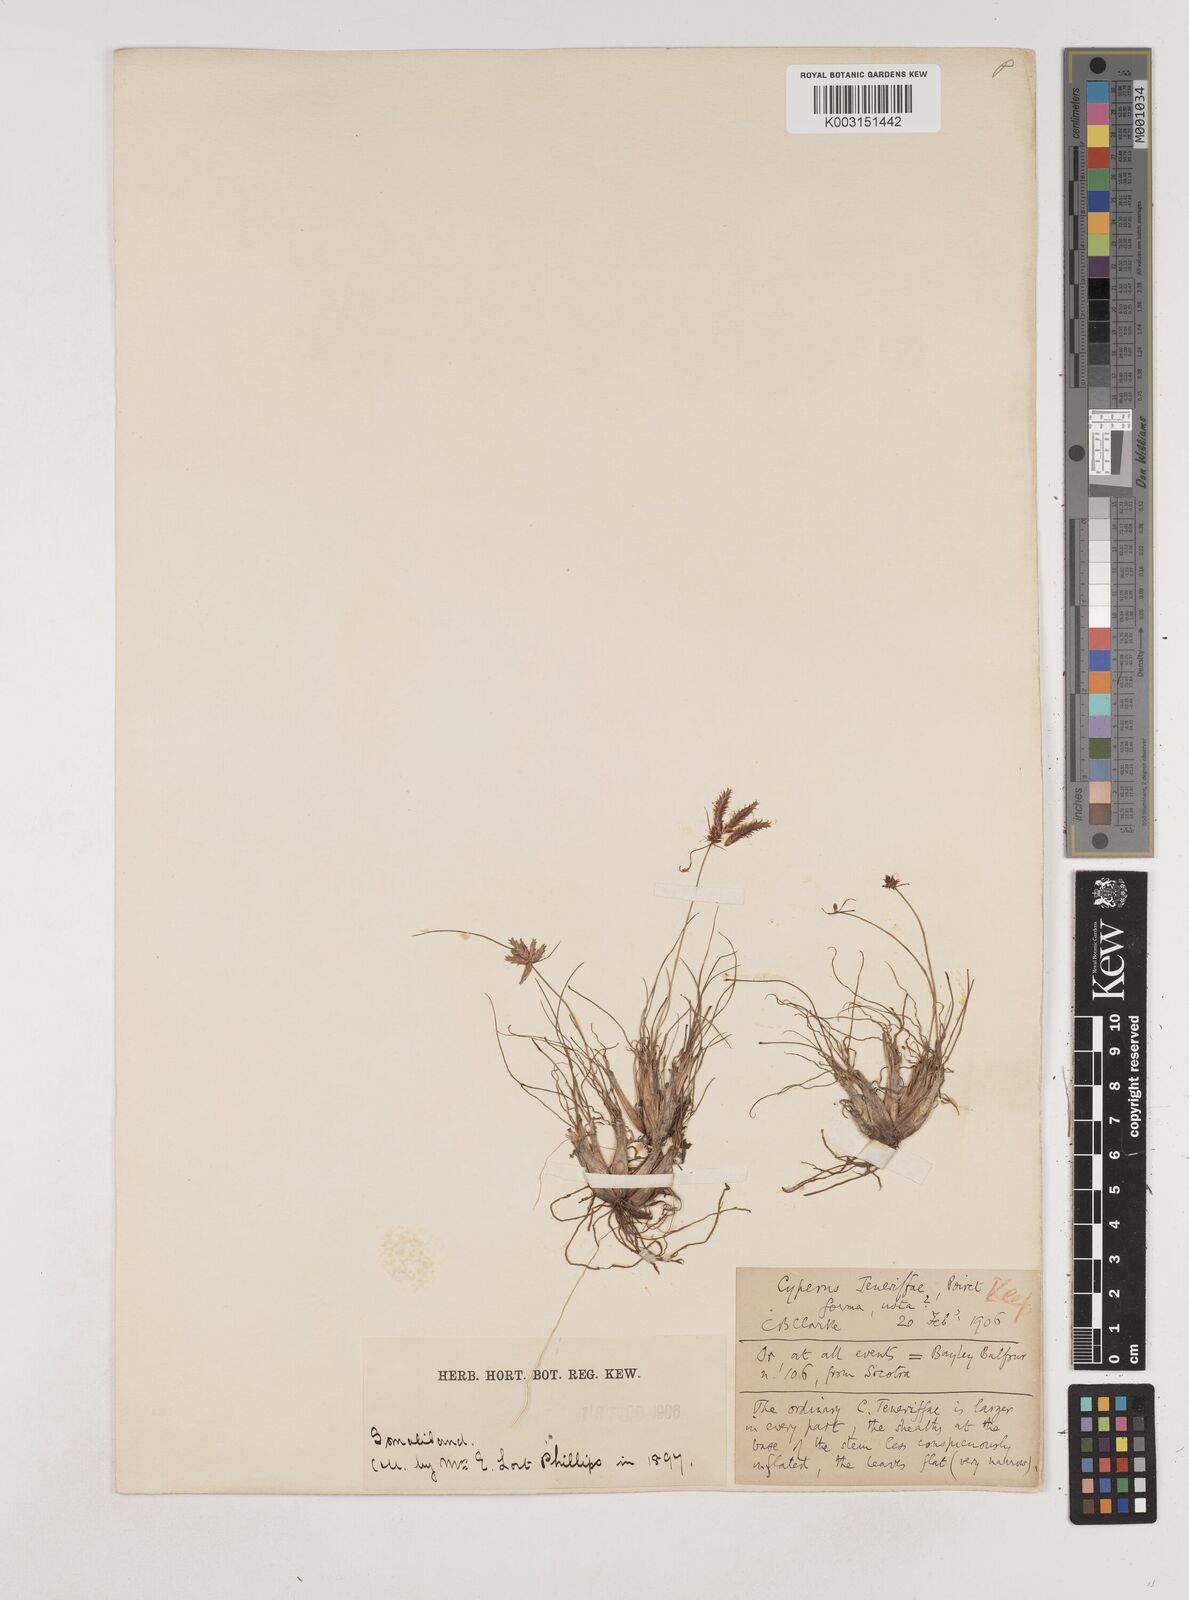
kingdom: Plantae
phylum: Tracheophyta
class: Liliopsida
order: Poales
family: Cyperaceae
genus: Cyperus
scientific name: Cyperus pseudosomaliensis
